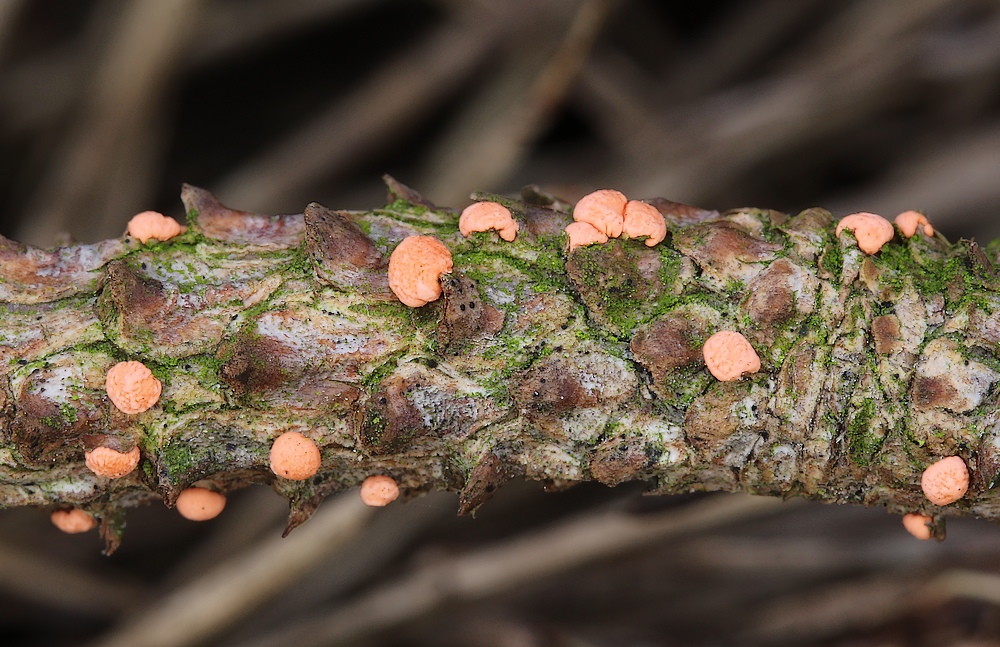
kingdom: Fungi
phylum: Ascomycota
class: Sordariomycetes
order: Hypocreales
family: Nectriaceae
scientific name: Nectriaceae
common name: cinnobersvampfamilien
